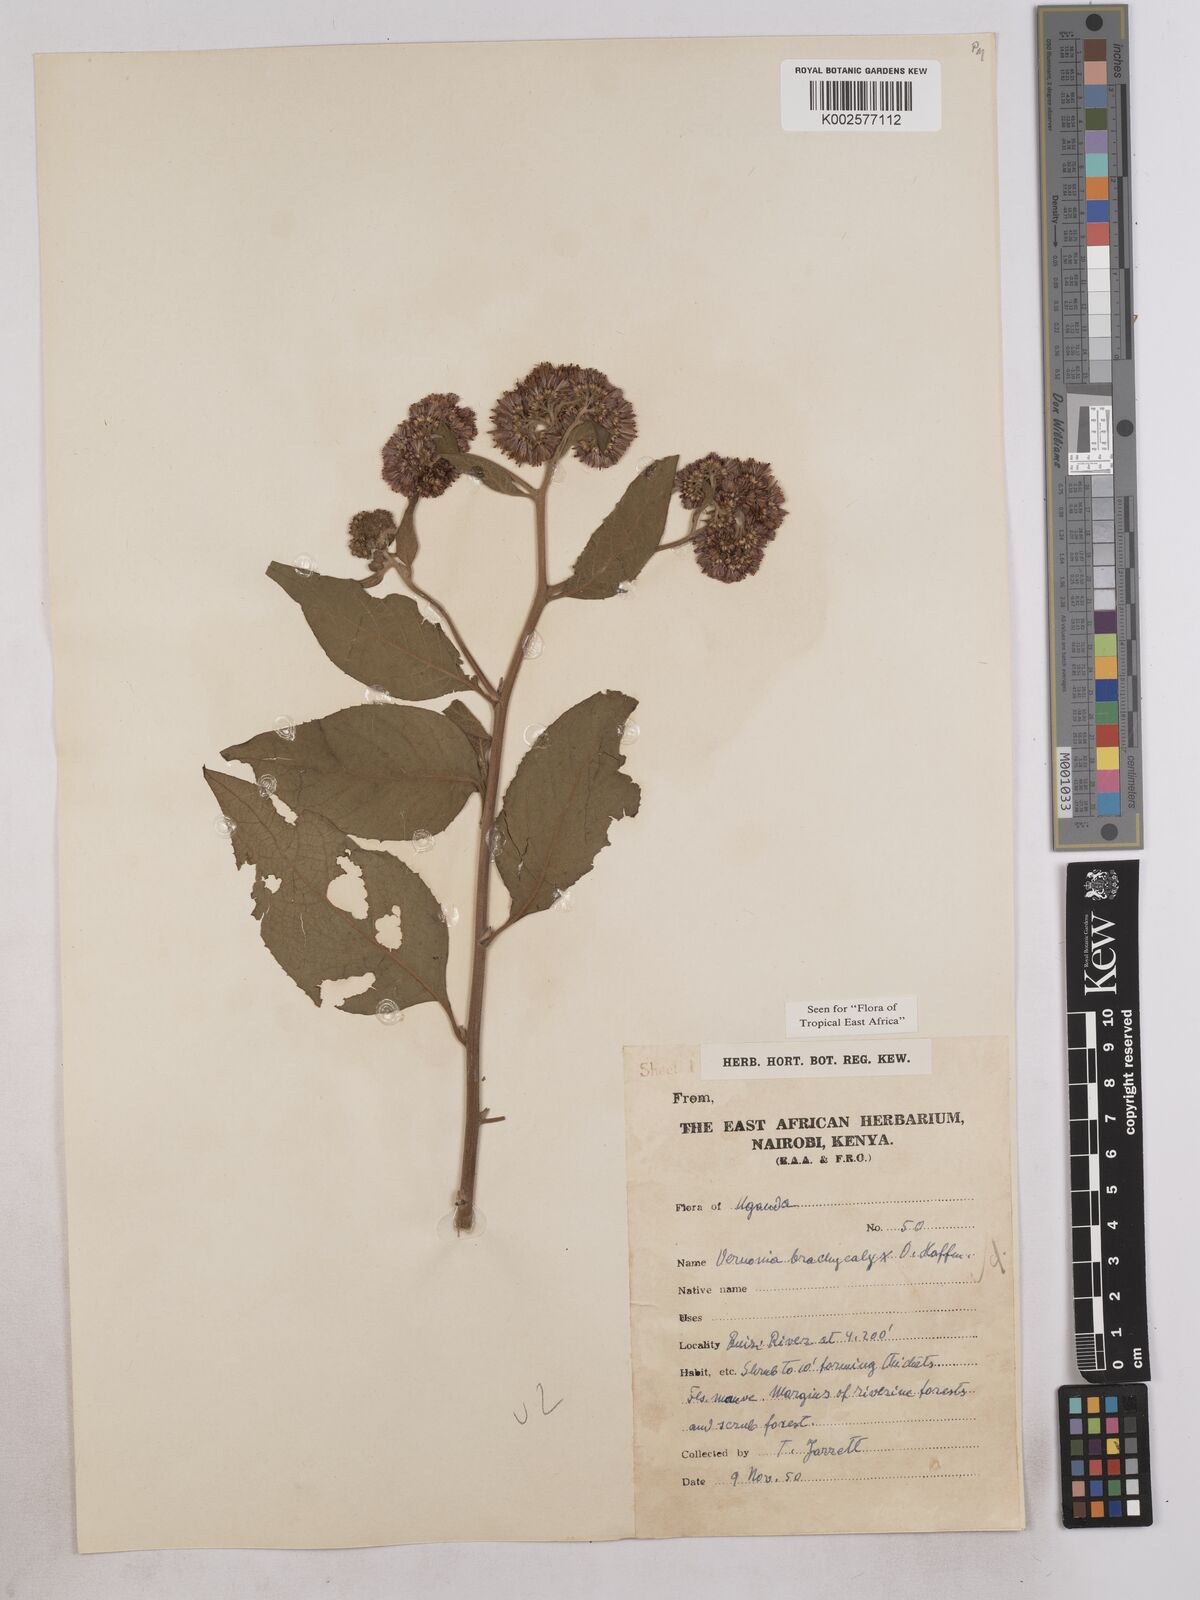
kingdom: Plantae
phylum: Tracheophyta
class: Magnoliopsida
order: Asterales
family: Asteraceae
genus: Hoffmannanthus
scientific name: Hoffmannanthus abbotianus
